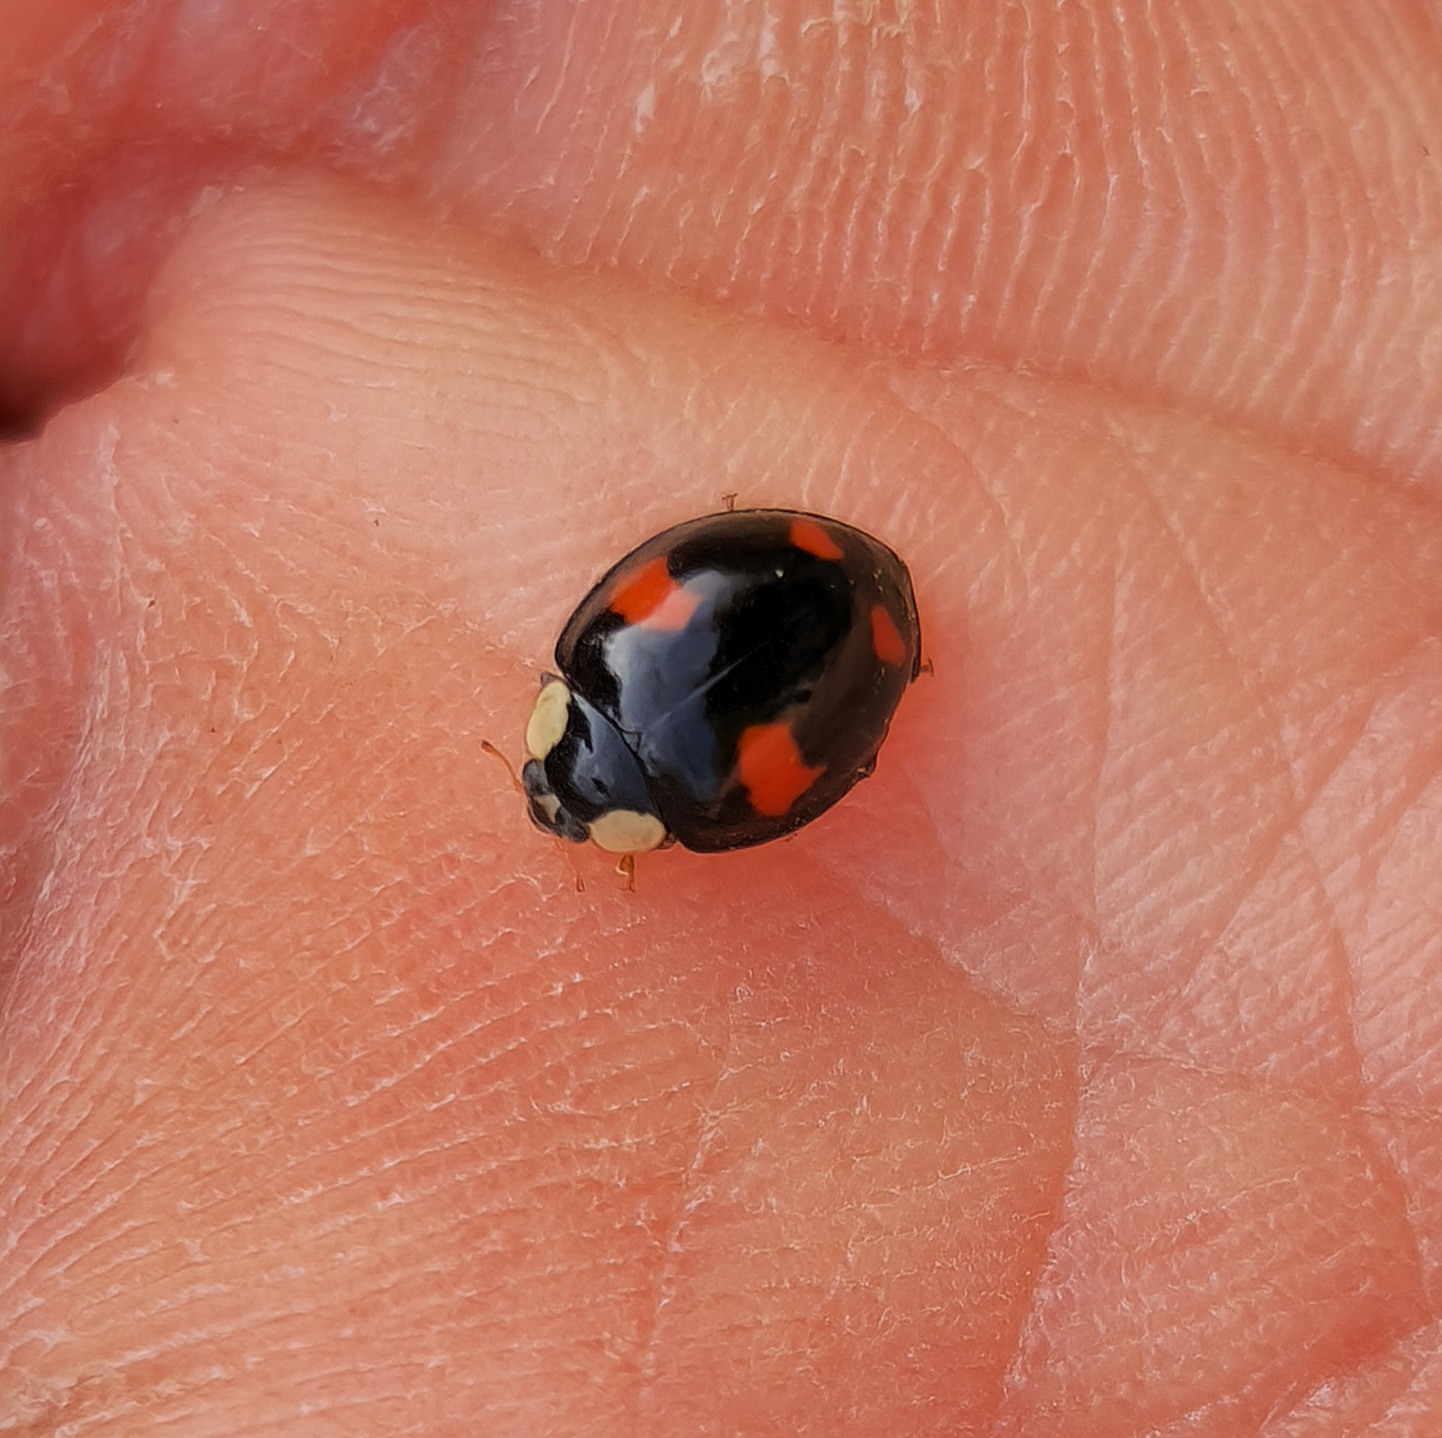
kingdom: Animalia
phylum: Arthropoda
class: Insecta
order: Coleoptera
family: Coccinellidae
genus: Harmonia
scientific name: Harmonia axyridis
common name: Harlekinmariehøne
